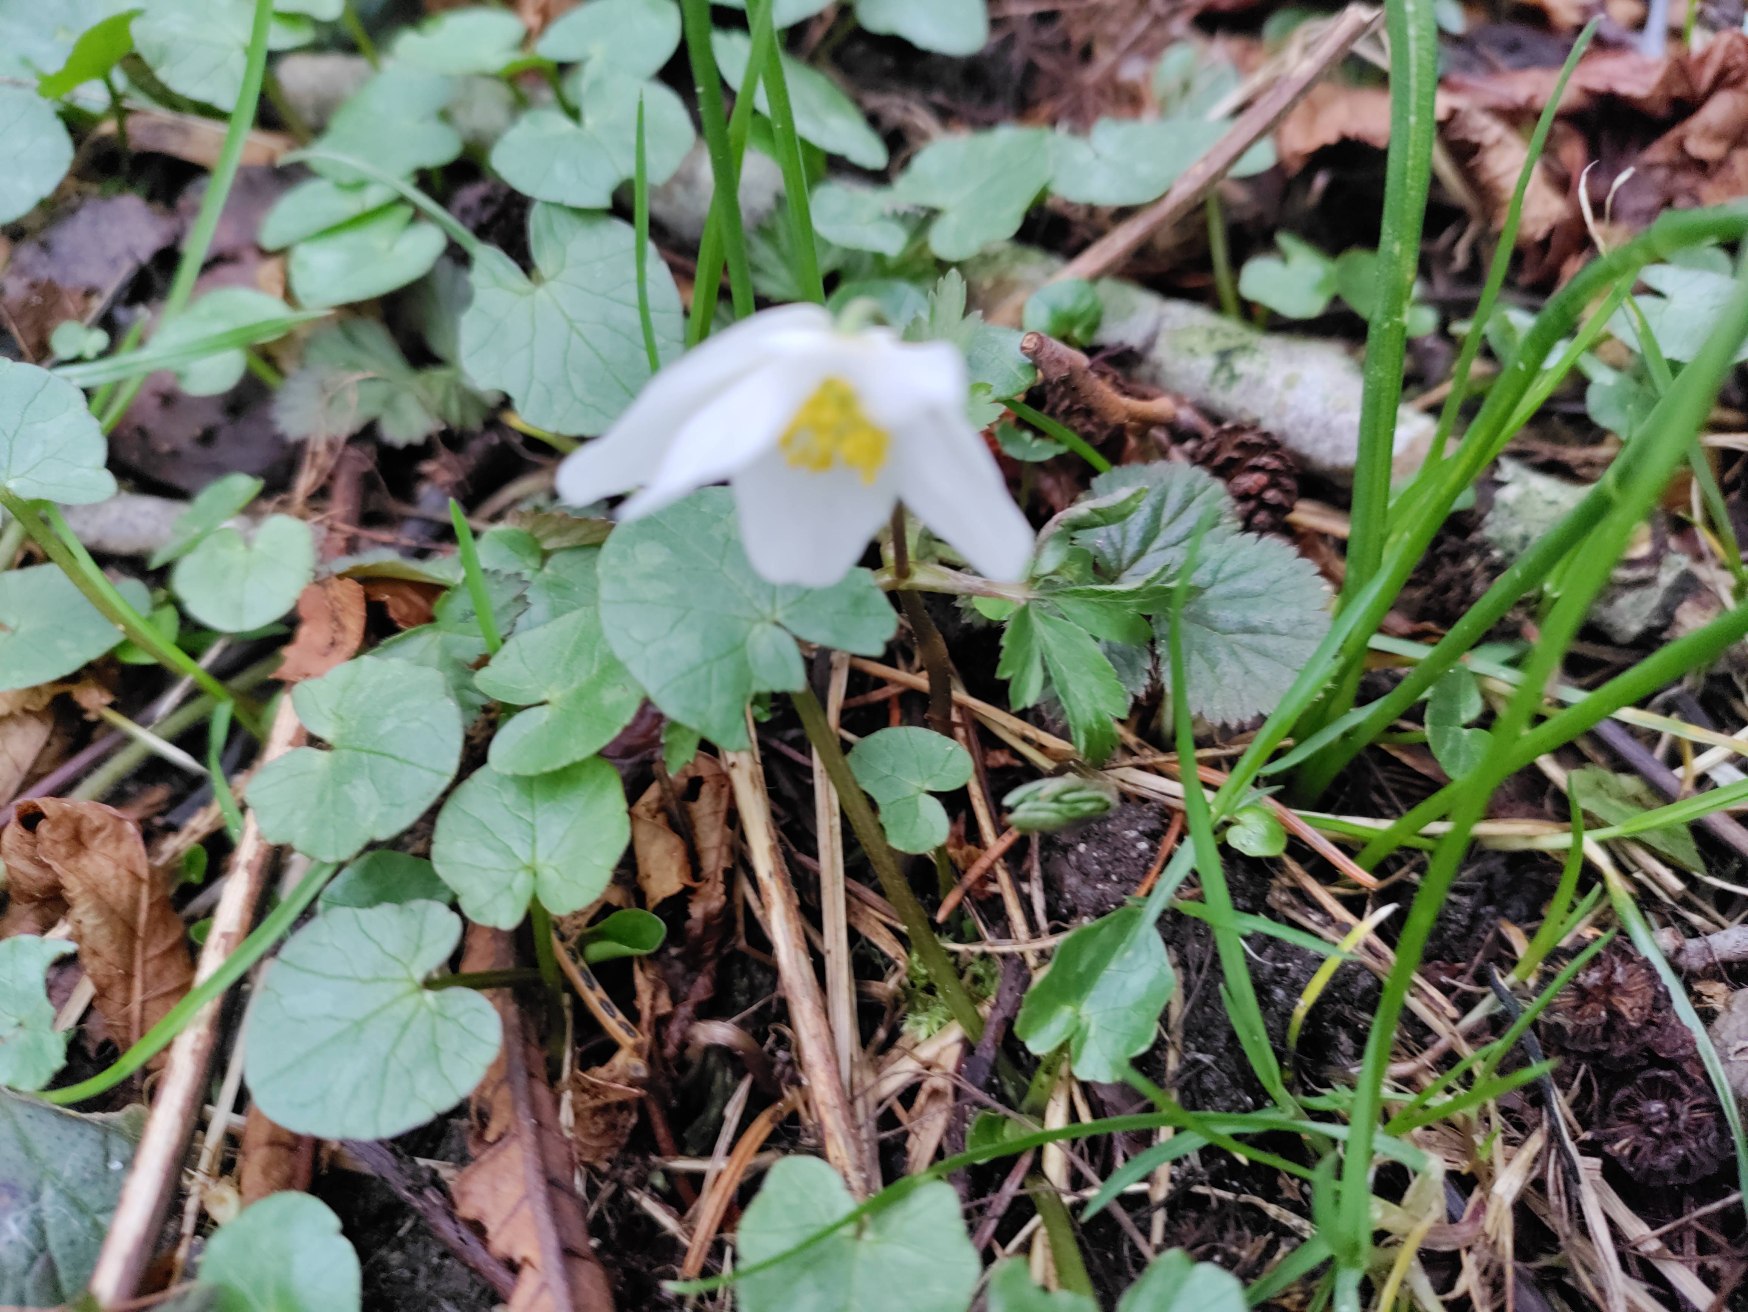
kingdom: Plantae
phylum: Tracheophyta
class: Magnoliopsida
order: Ranunculales
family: Ranunculaceae
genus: Anemone
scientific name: Anemone nemorosa
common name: Hvid anemone
